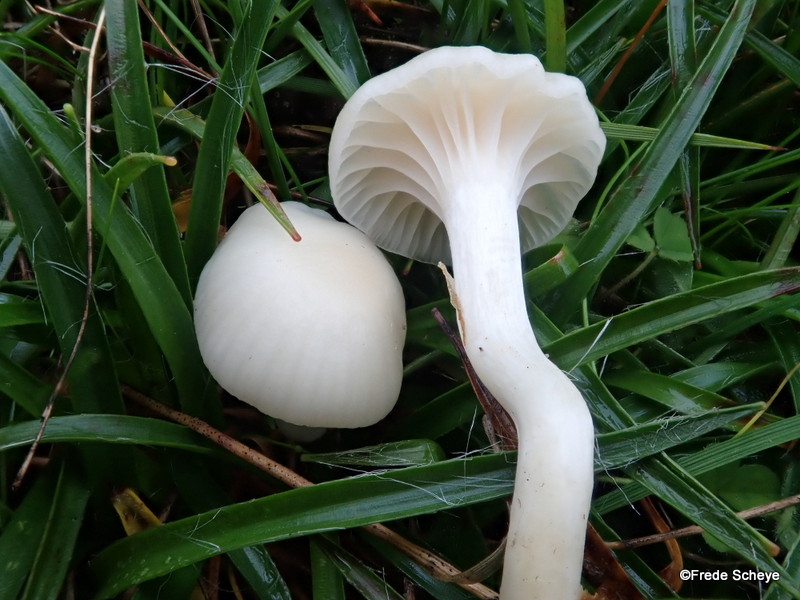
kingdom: Fungi
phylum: Basidiomycota
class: Agaricomycetes
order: Agaricales
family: Hygrophoraceae
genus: Cuphophyllus
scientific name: Cuphophyllus virgineus
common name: snehvid vokshat
